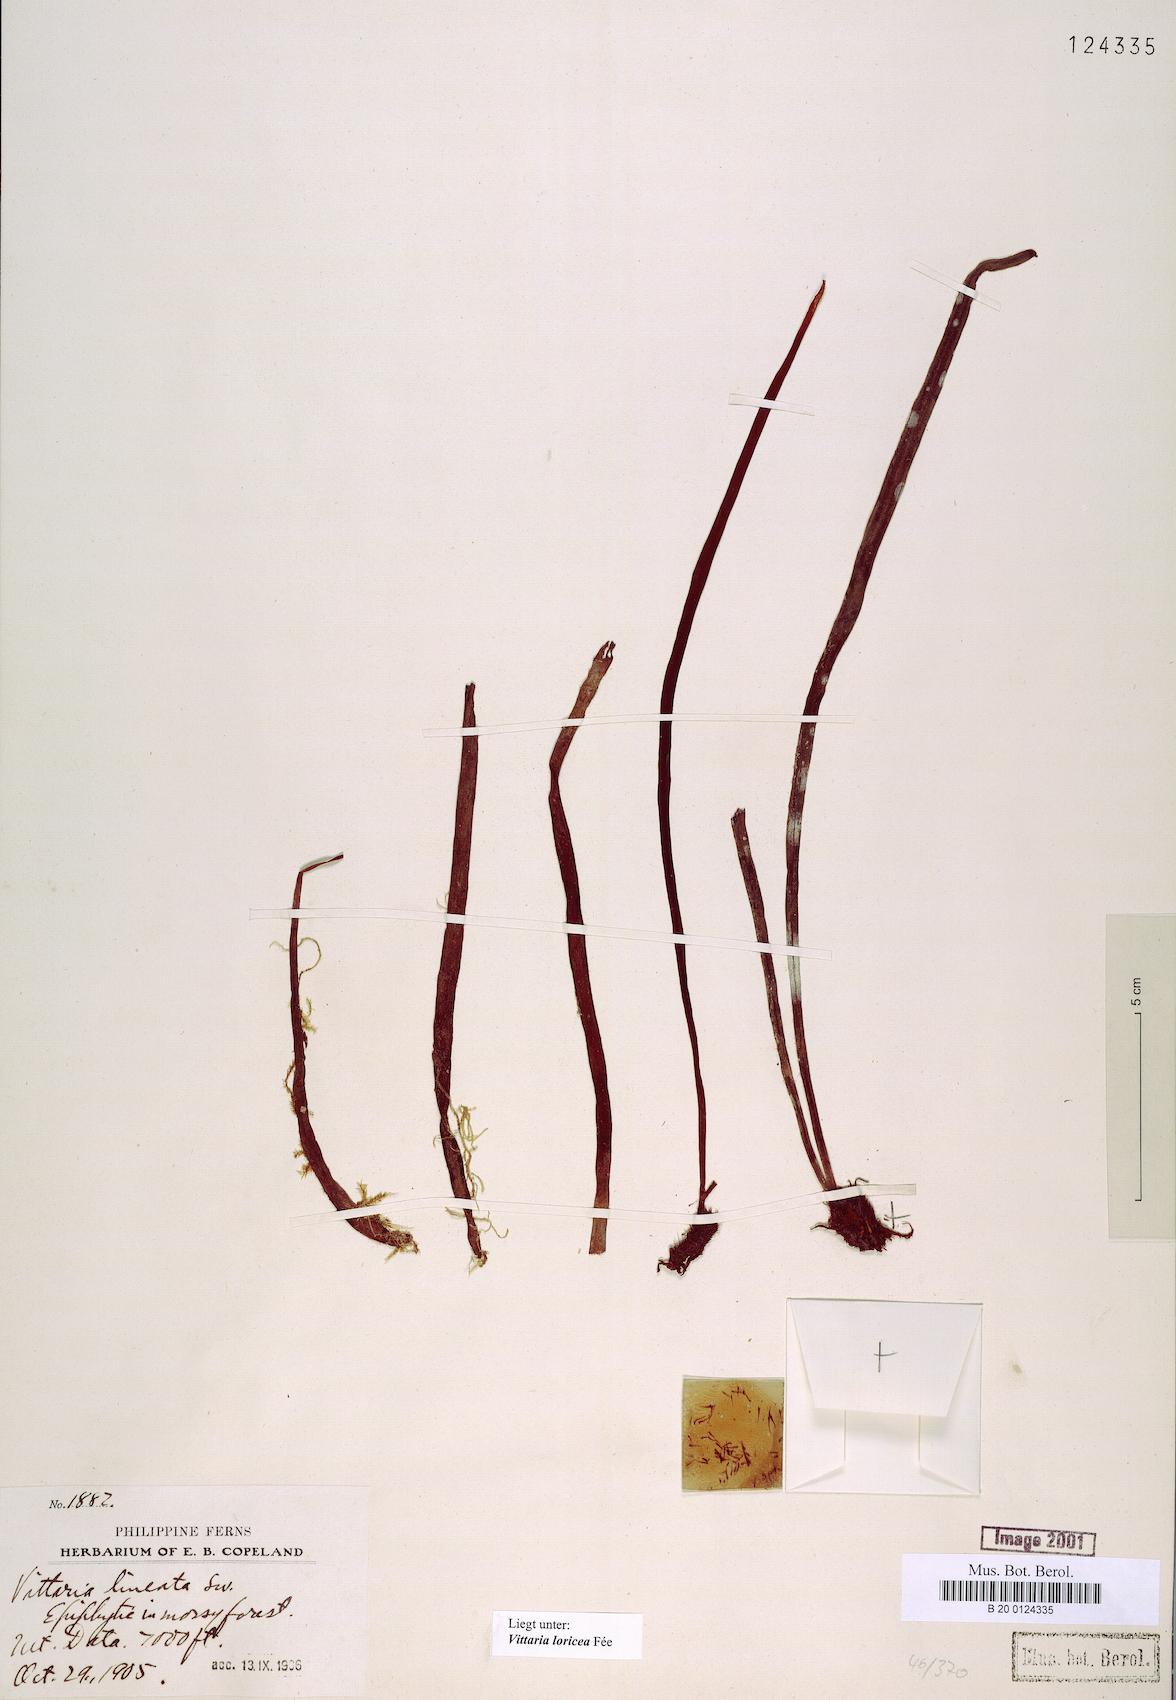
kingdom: Plantae
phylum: Tracheophyta
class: Polypodiopsida
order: Polypodiales
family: Pteridaceae
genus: Haplopteris
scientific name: Haplopteris zosterifolia
